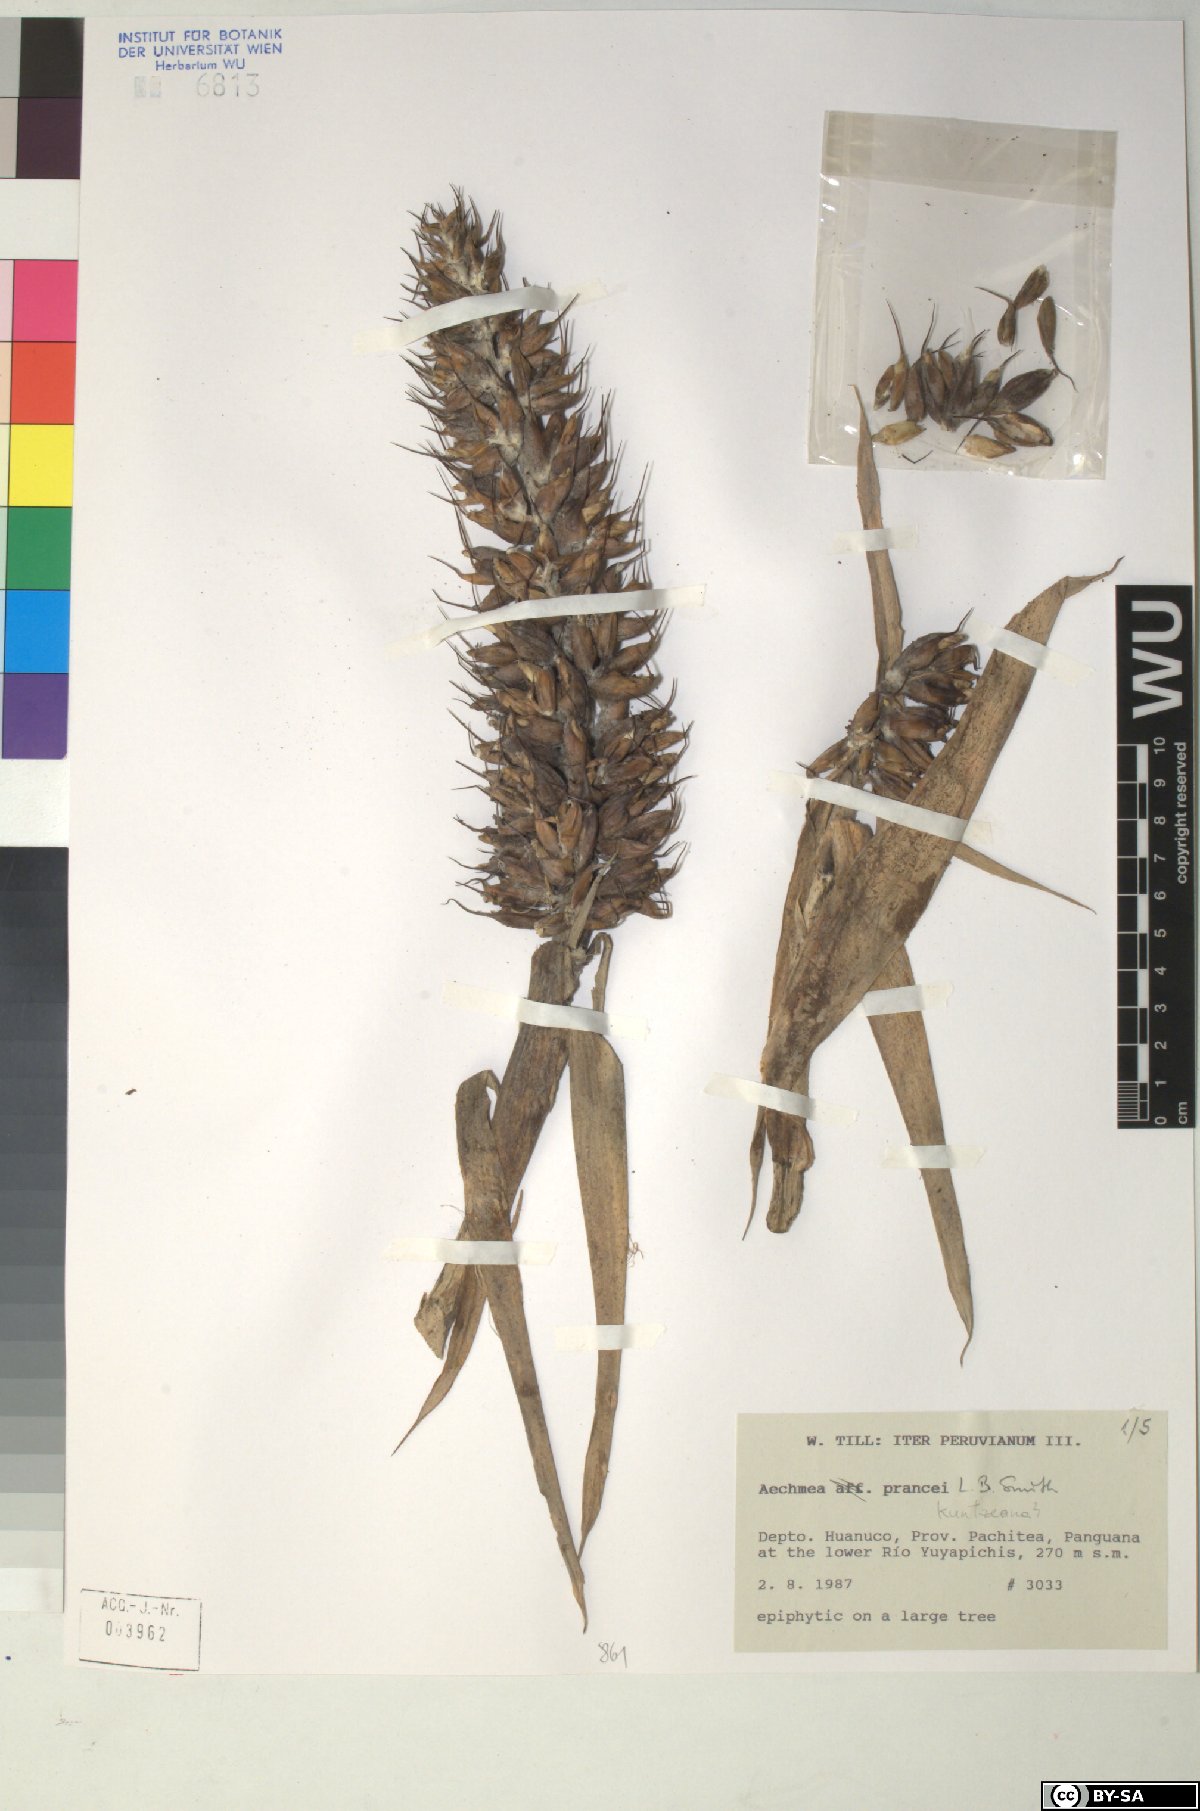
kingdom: Plantae
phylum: Tracheophyta
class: Liliopsida
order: Poales
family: Bromeliaceae
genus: Aechmea
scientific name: Aechmea prancei
